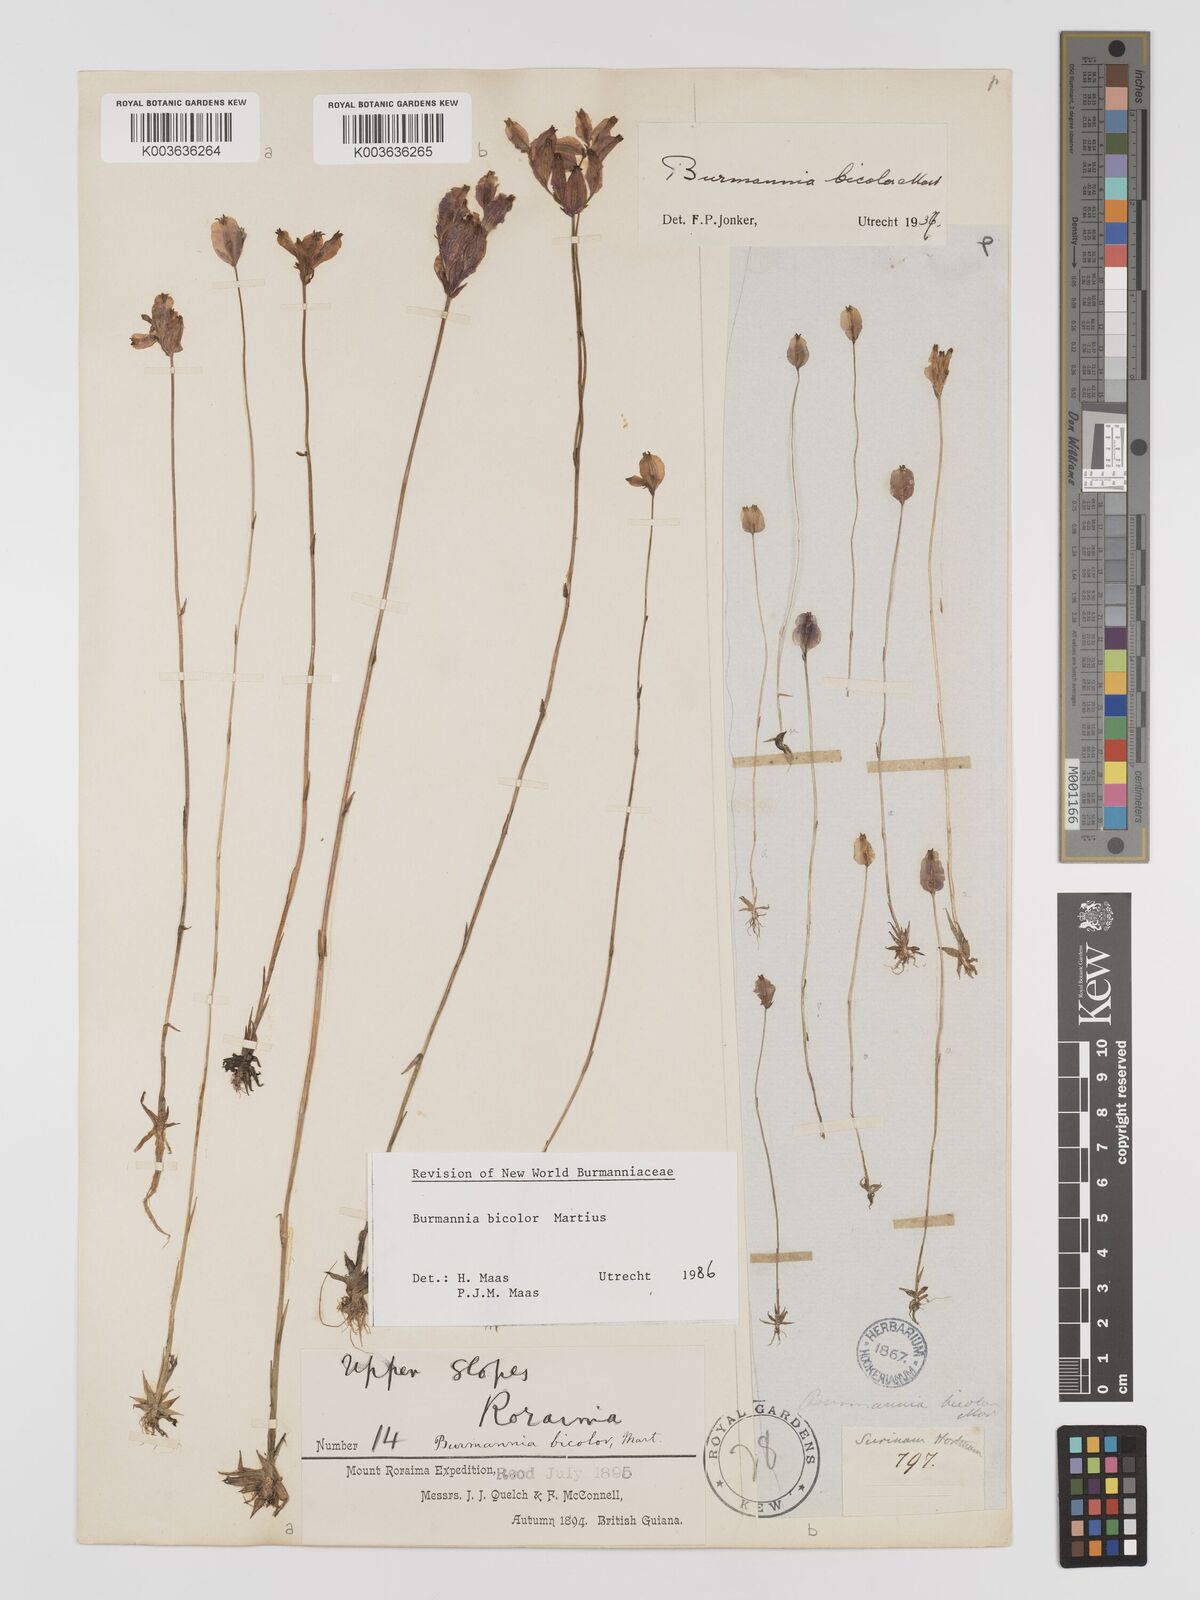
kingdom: Plantae
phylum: Tracheophyta
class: Liliopsida
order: Dioscoreales
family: Burmanniaceae
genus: Burmannia
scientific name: Burmannia bicolor
